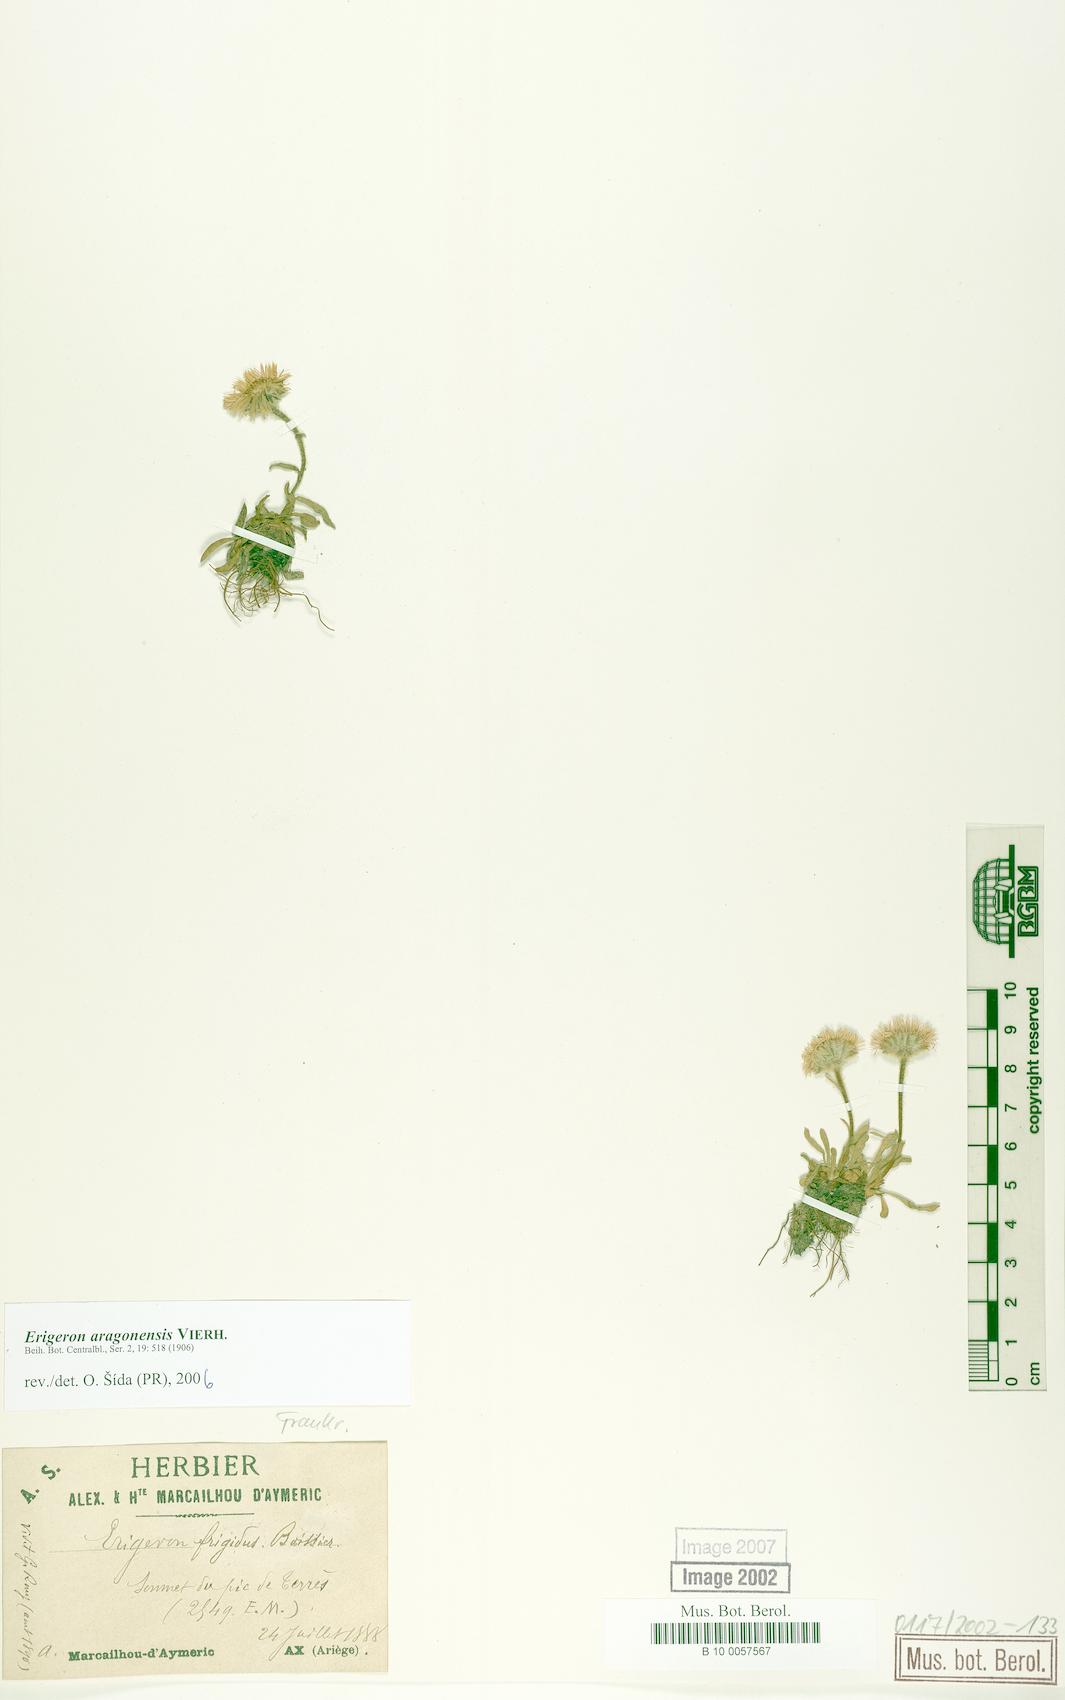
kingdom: Plantae
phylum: Tracheophyta
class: Magnoliopsida
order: Asterales
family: Asteraceae
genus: Erigeron
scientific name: Erigeron aragonensis
